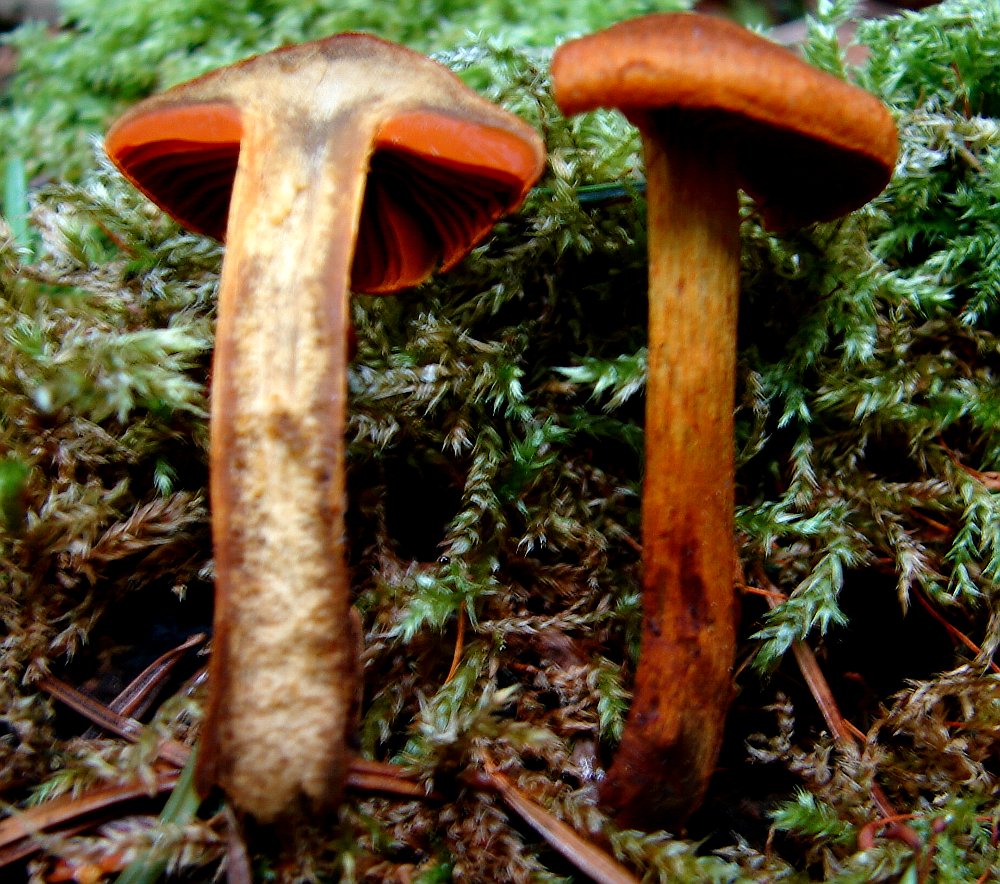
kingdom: Fungi
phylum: Basidiomycota
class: Agaricomycetes
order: Agaricales
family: Cortinariaceae
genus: Cortinarius
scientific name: Cortinarius malicorius
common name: grønkødet slørhat
